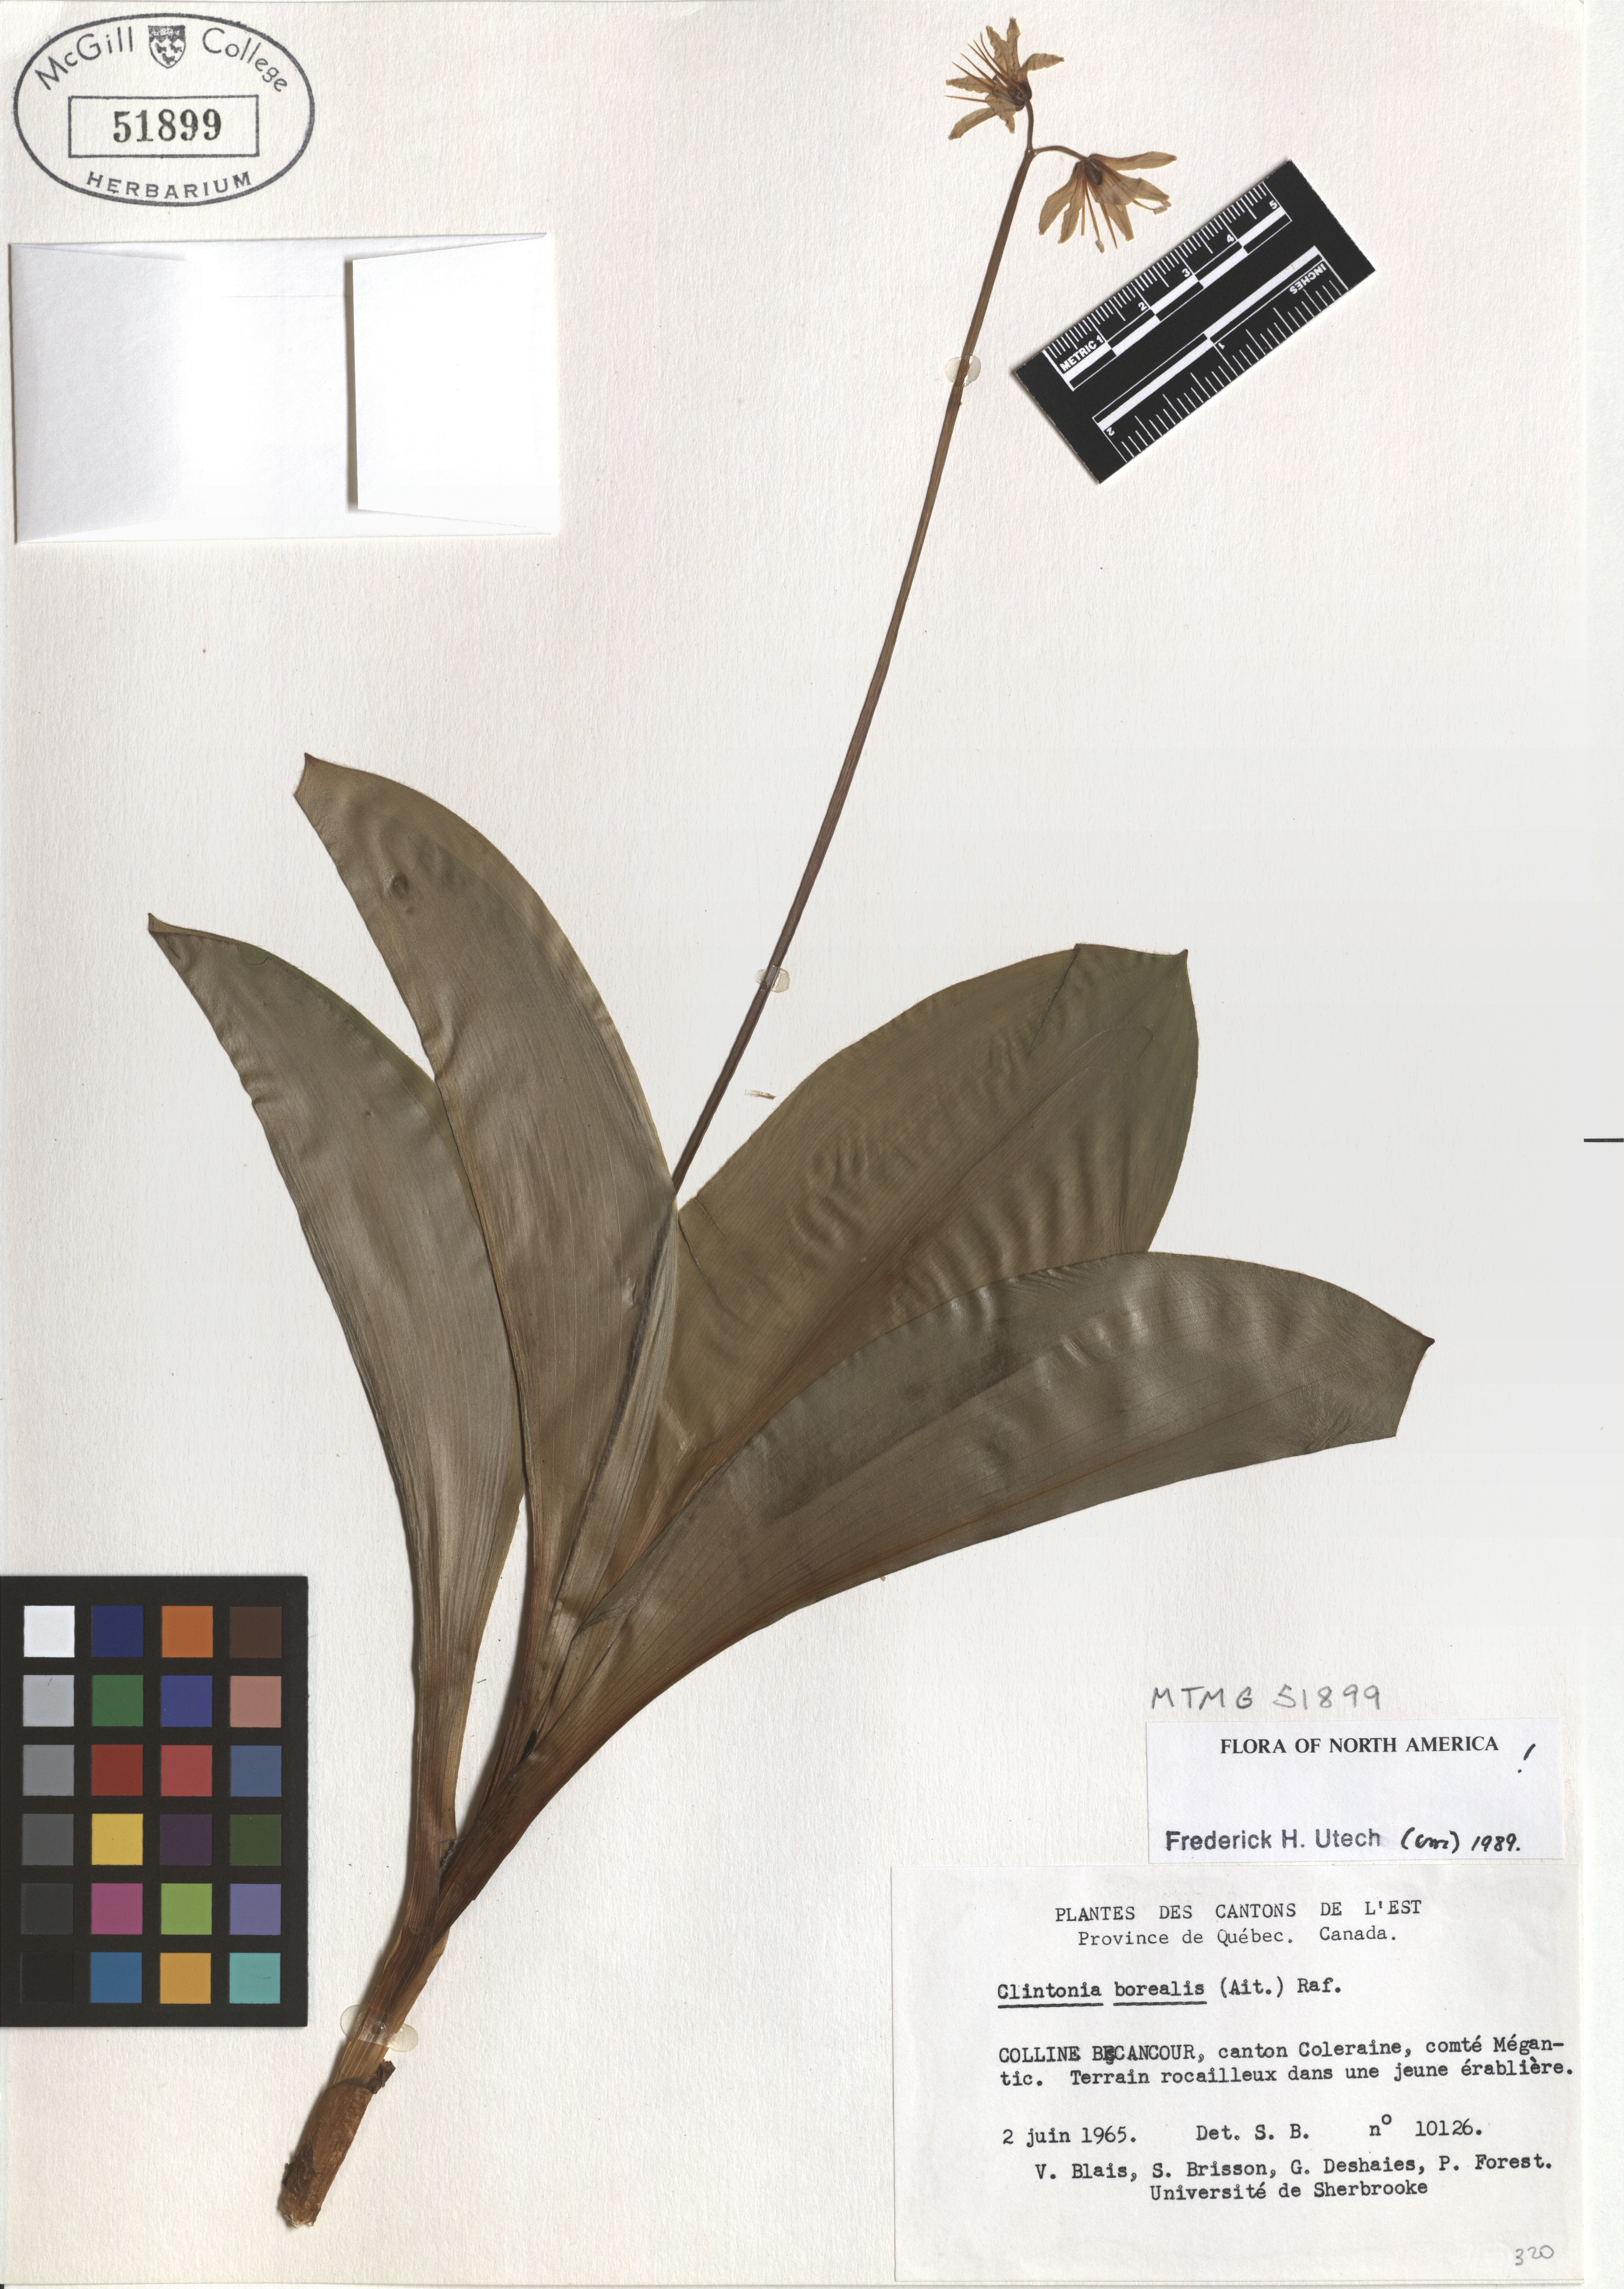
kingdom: Plantae
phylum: Tracheophyta
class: Liliopsida
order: Liliales
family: Liliaceae
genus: Clintonia
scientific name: Clintonia borealis
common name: Yellow clintonia
